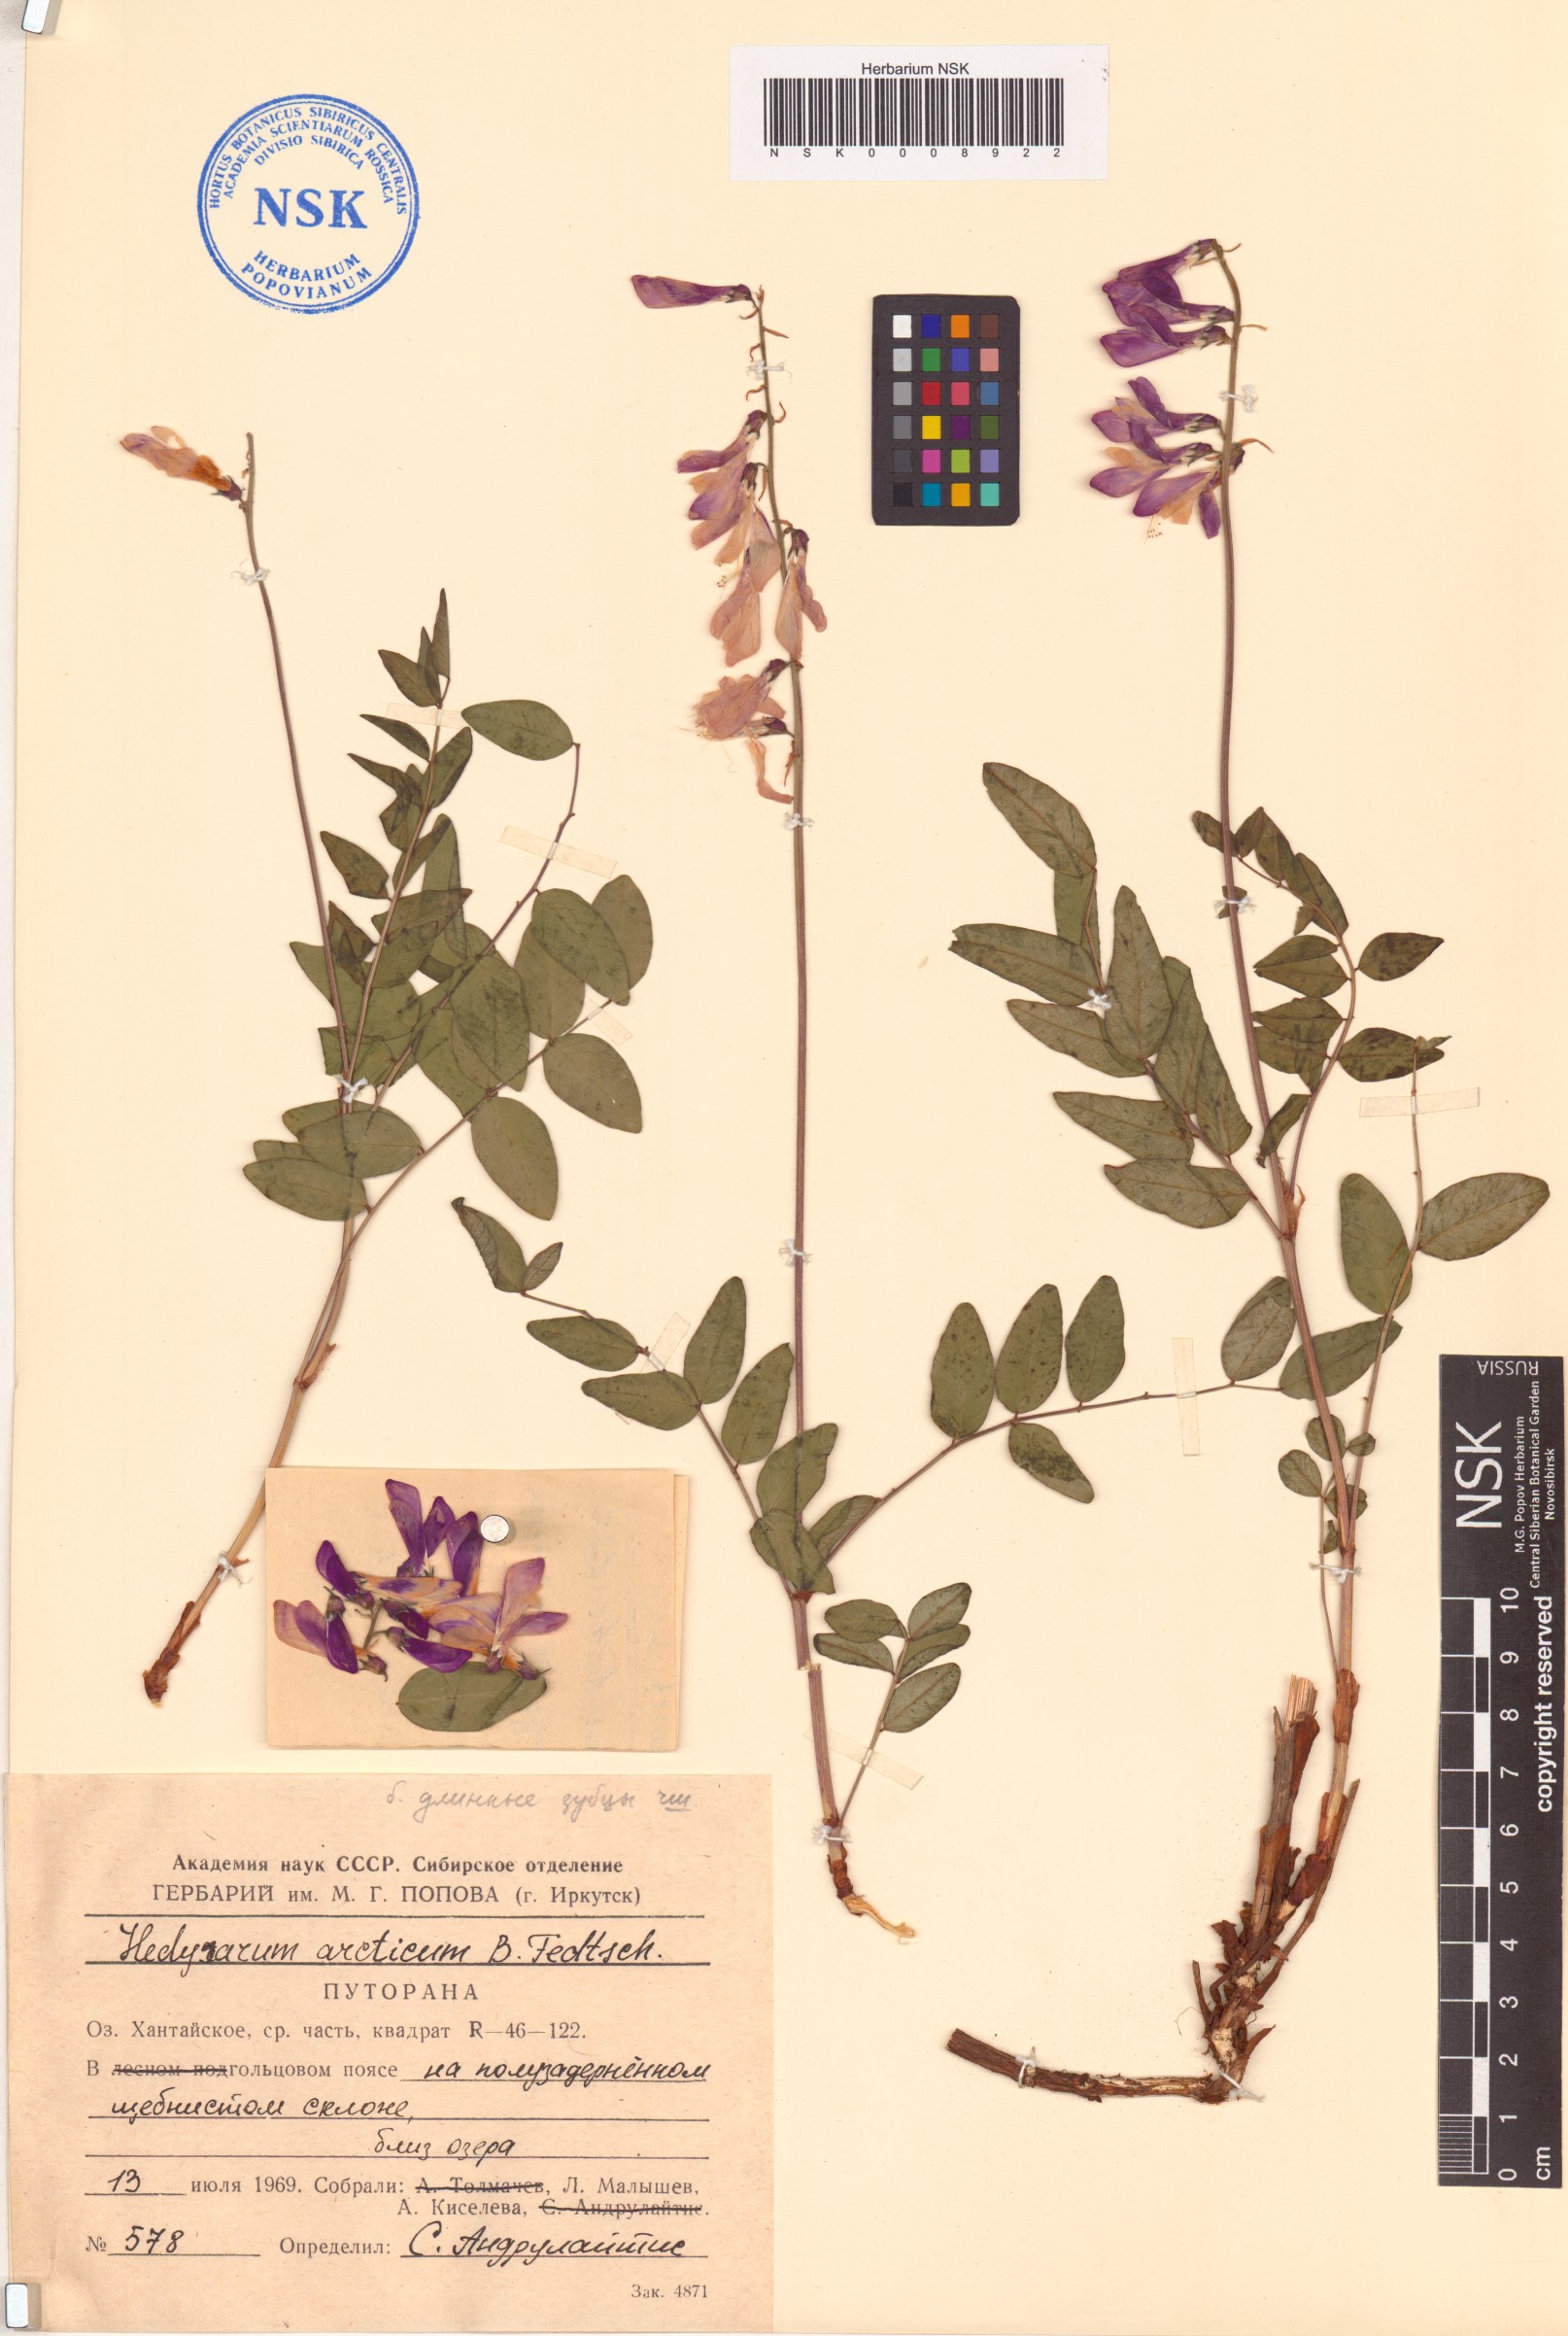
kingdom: Plantae
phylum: Tracheophyta
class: Magnoliopsida
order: Fabales
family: Fabaceae
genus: Hedysarum
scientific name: Hedysarum hedysaroides
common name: Alpine french-honeysuckle
